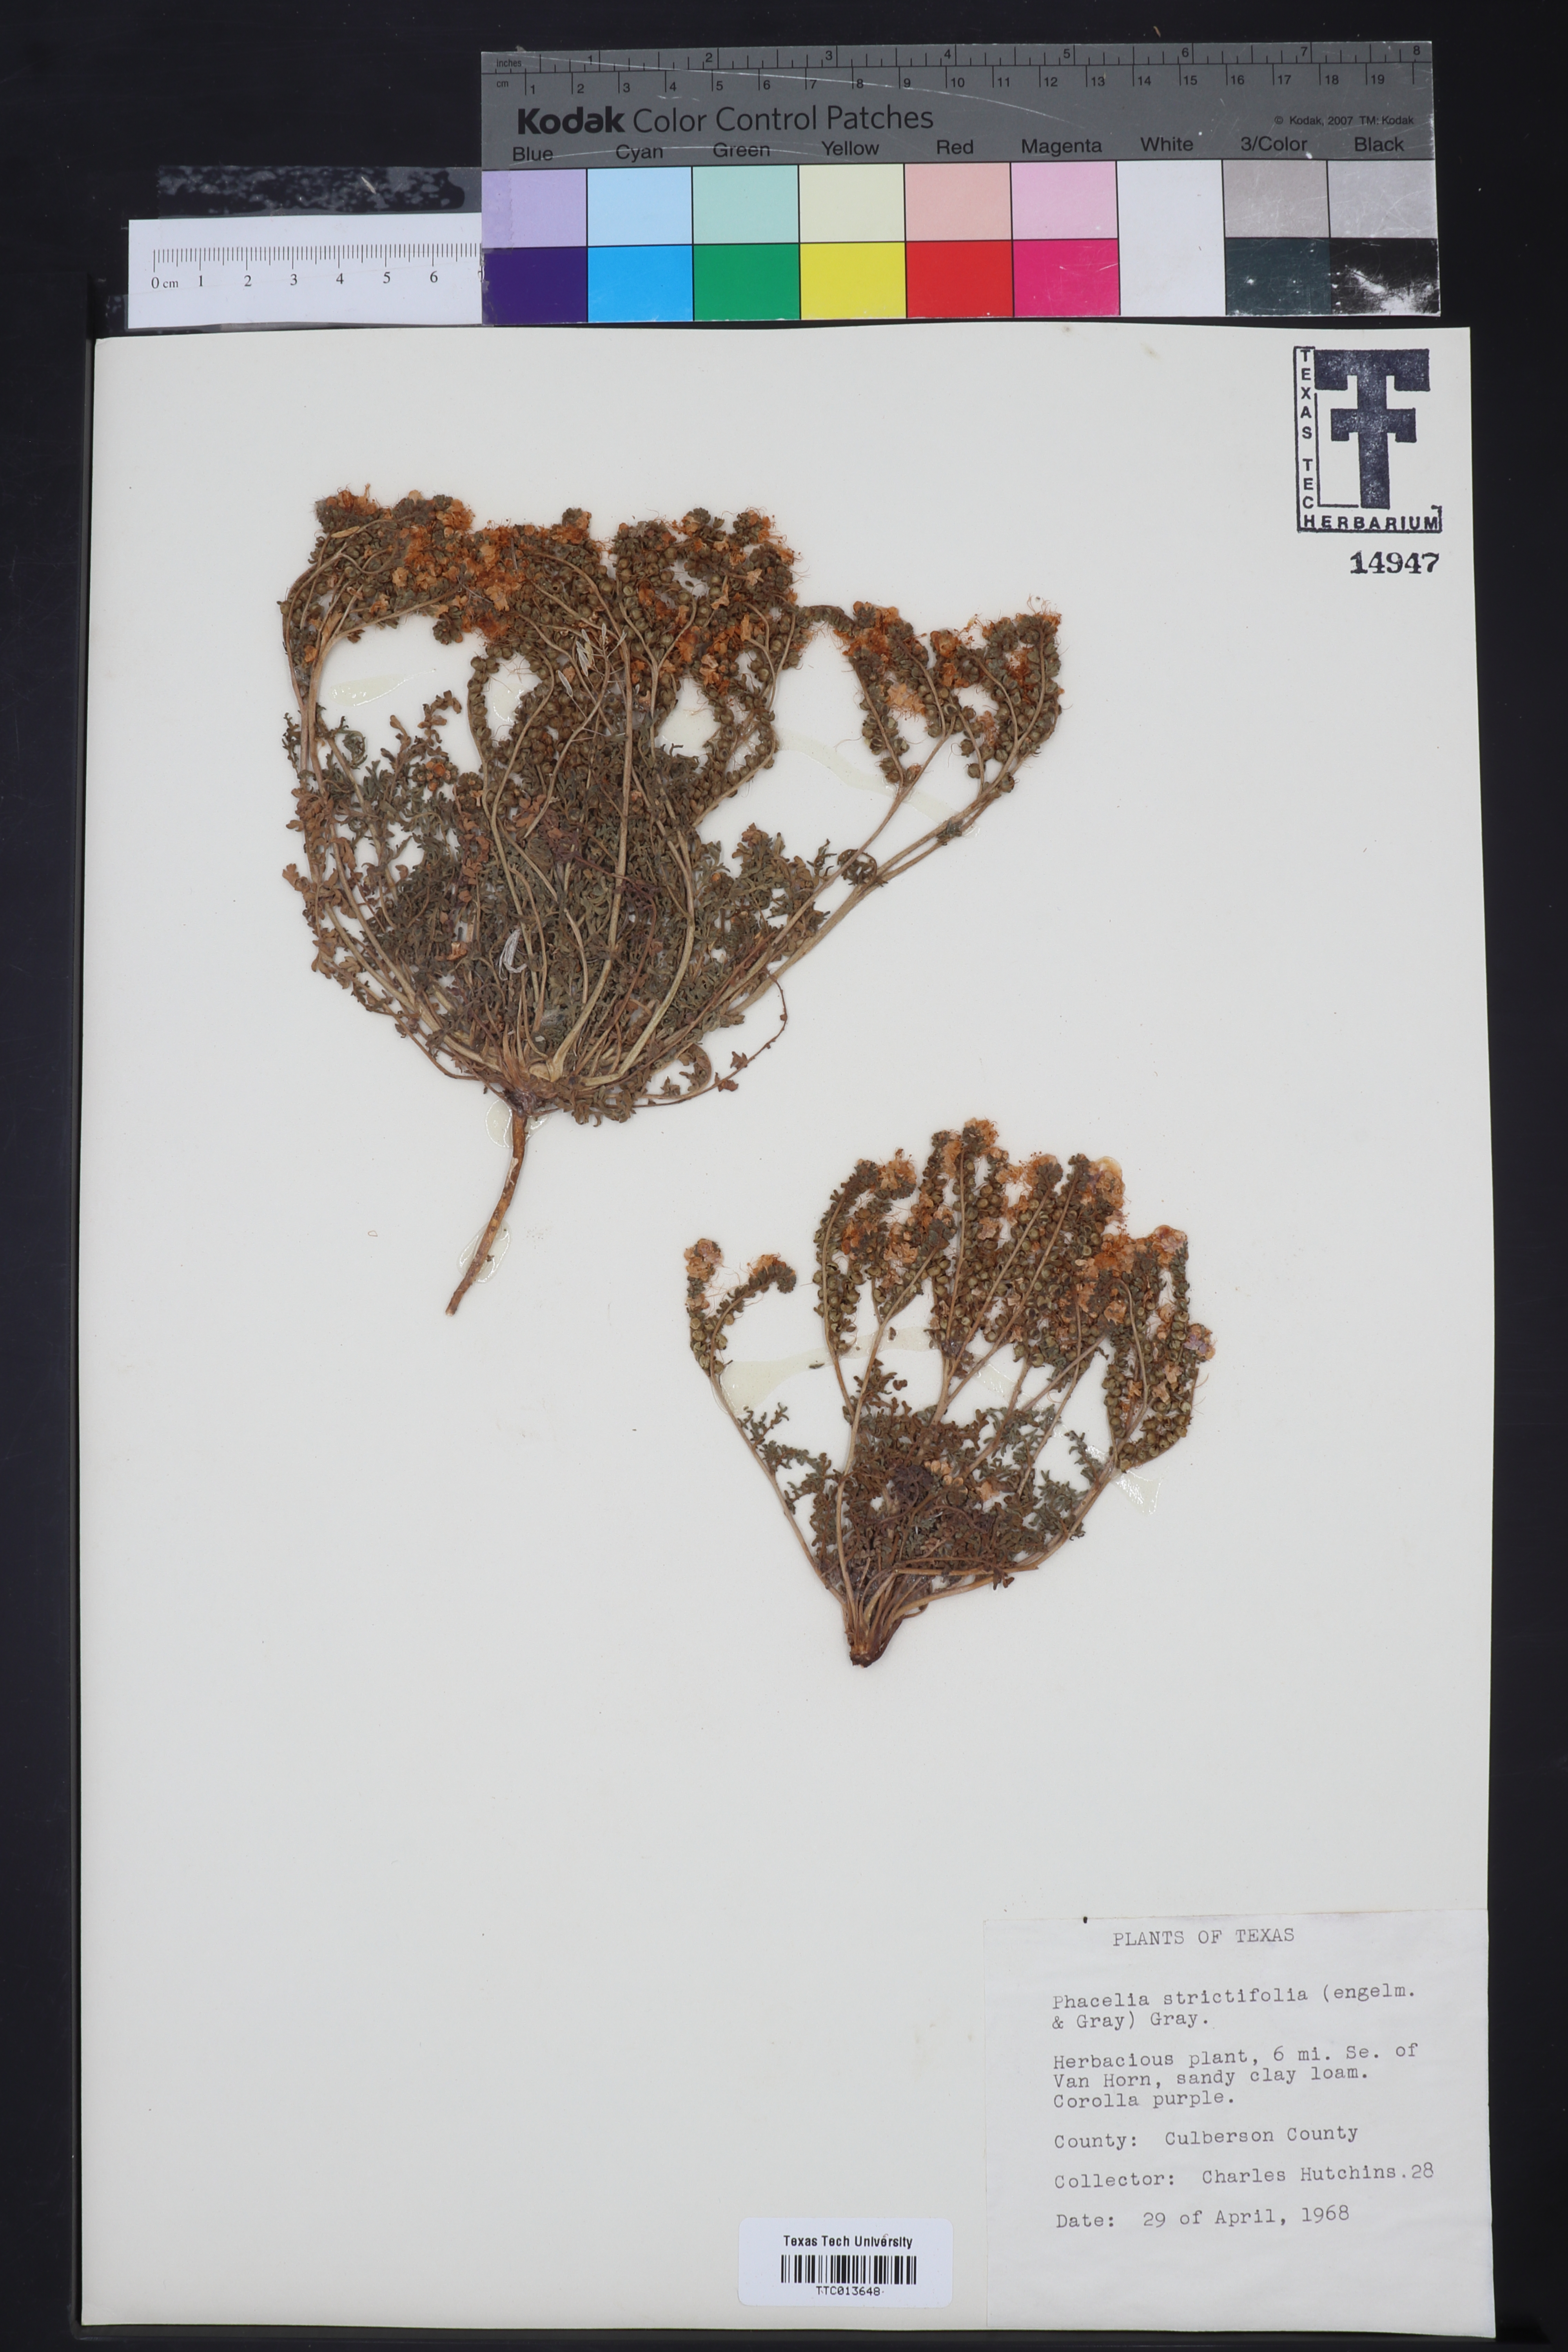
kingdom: Plantae
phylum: Tracheophyta
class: Magnoliopsida
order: Boraginales
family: Hydrophyllaceae
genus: Phacelia
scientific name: Phacelia strictiflora
